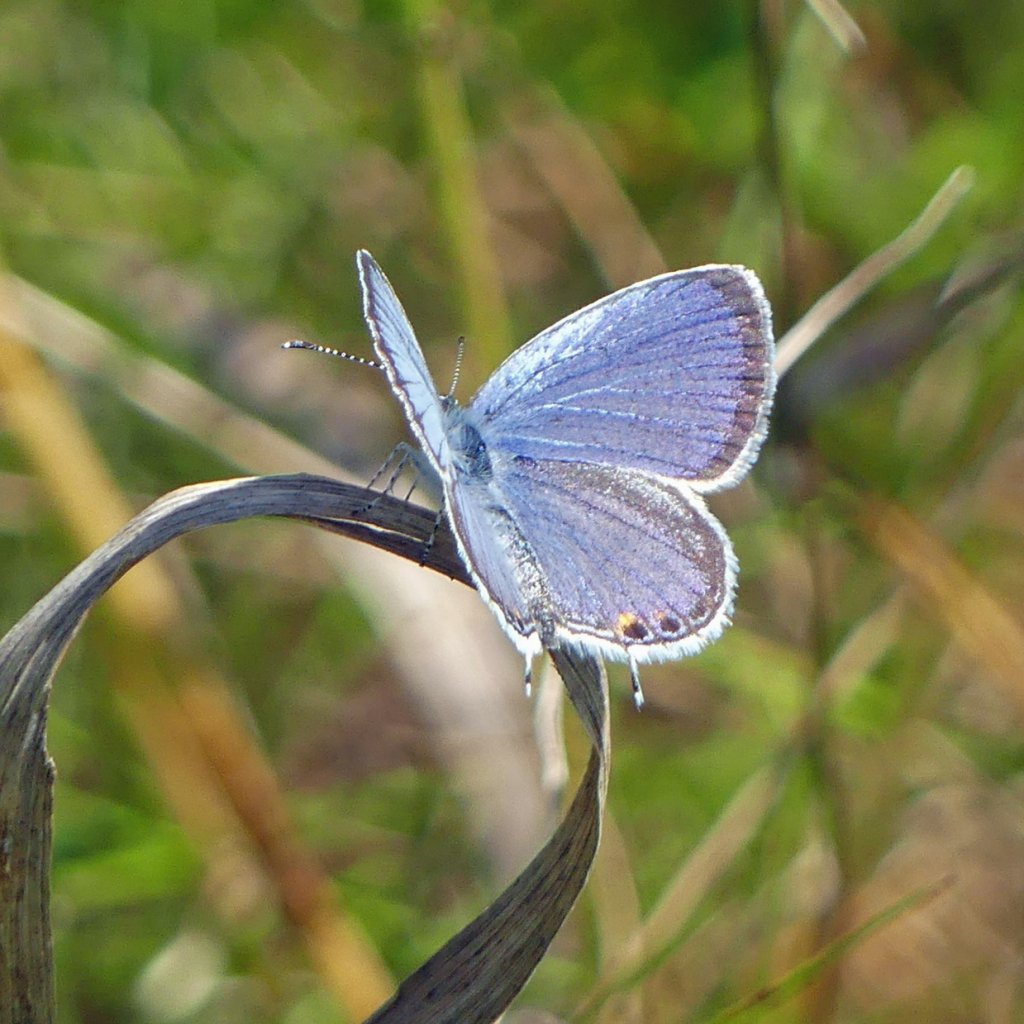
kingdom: Animalia
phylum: Arthropoda
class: Insecta
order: Lepidoptera
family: Lycaenidae
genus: Elkalyce
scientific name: Elkalyce comyntas
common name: Eastern Tailed-Blue
